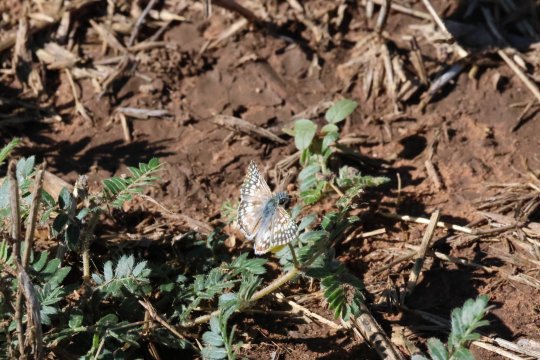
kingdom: Animalia
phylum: Arthropoda
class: Insecta
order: Lepidoptera
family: Hesperiidae
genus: Pyrgus
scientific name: Pyrgus communis
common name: Common Checkered-Skipper
